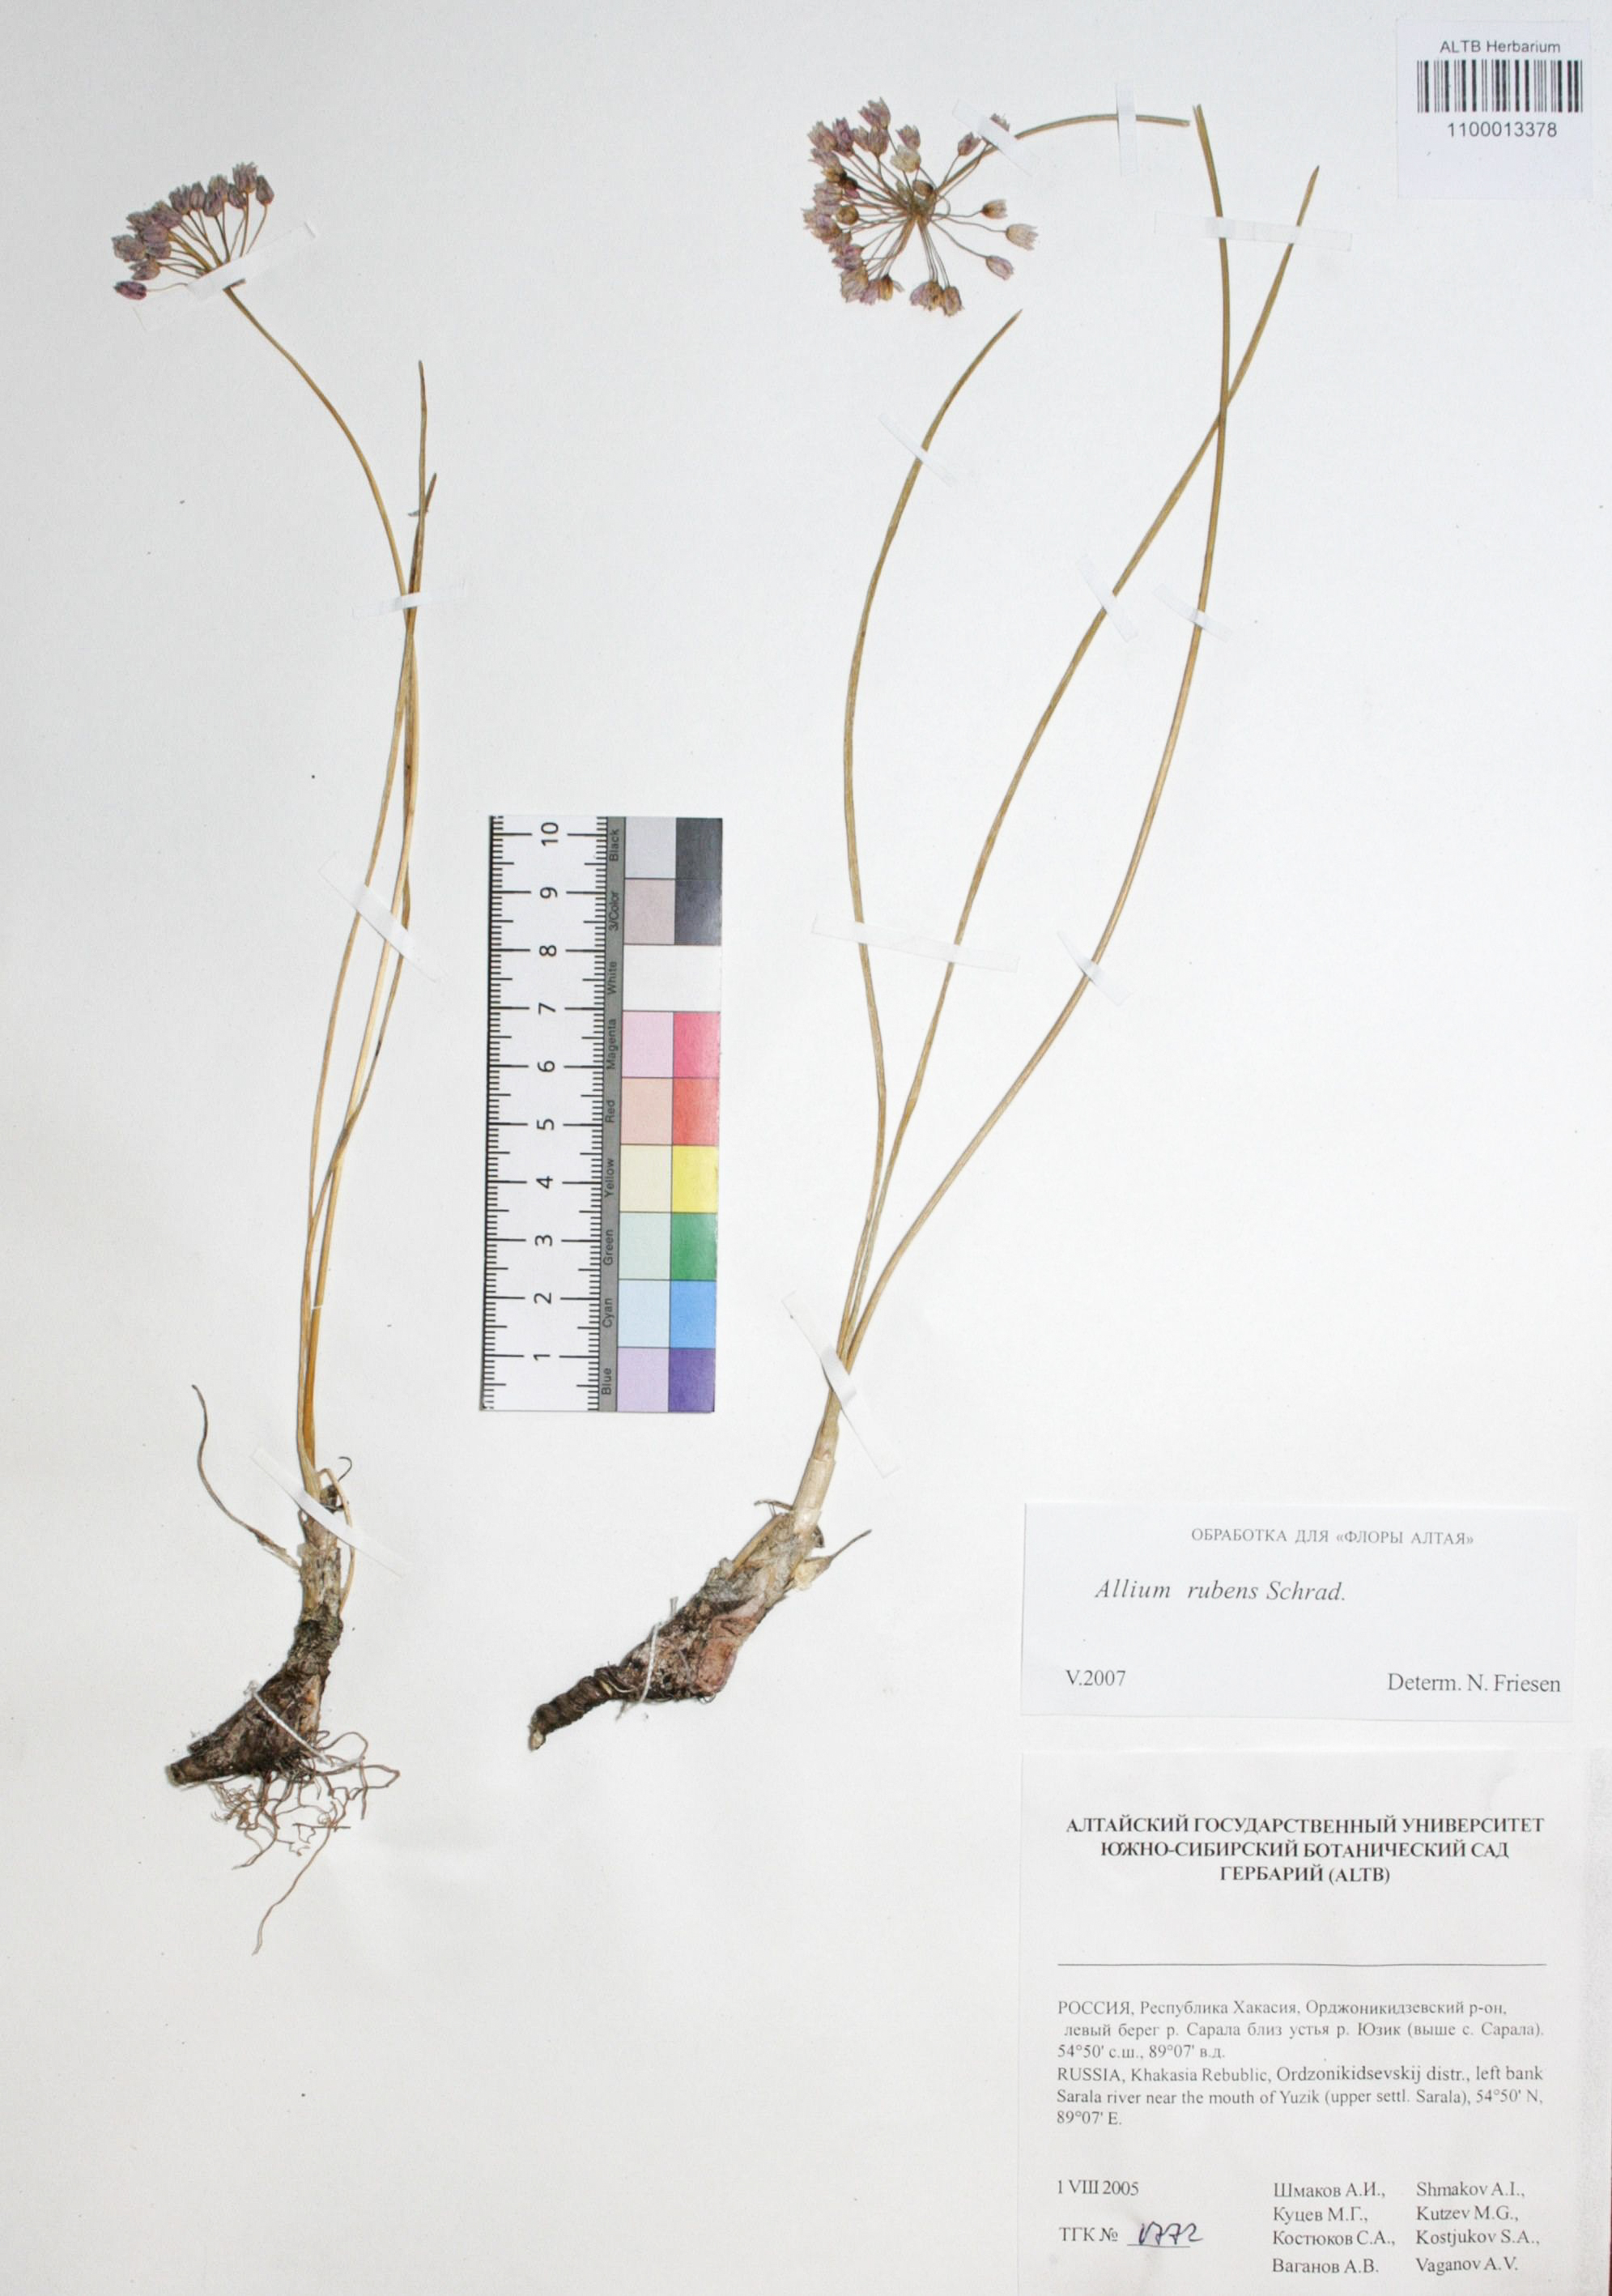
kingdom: Plantae
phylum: Tracheophyta
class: Liliopsida
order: Asparagales
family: Amaryllidaceae
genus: Allium
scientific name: Allium rubens
